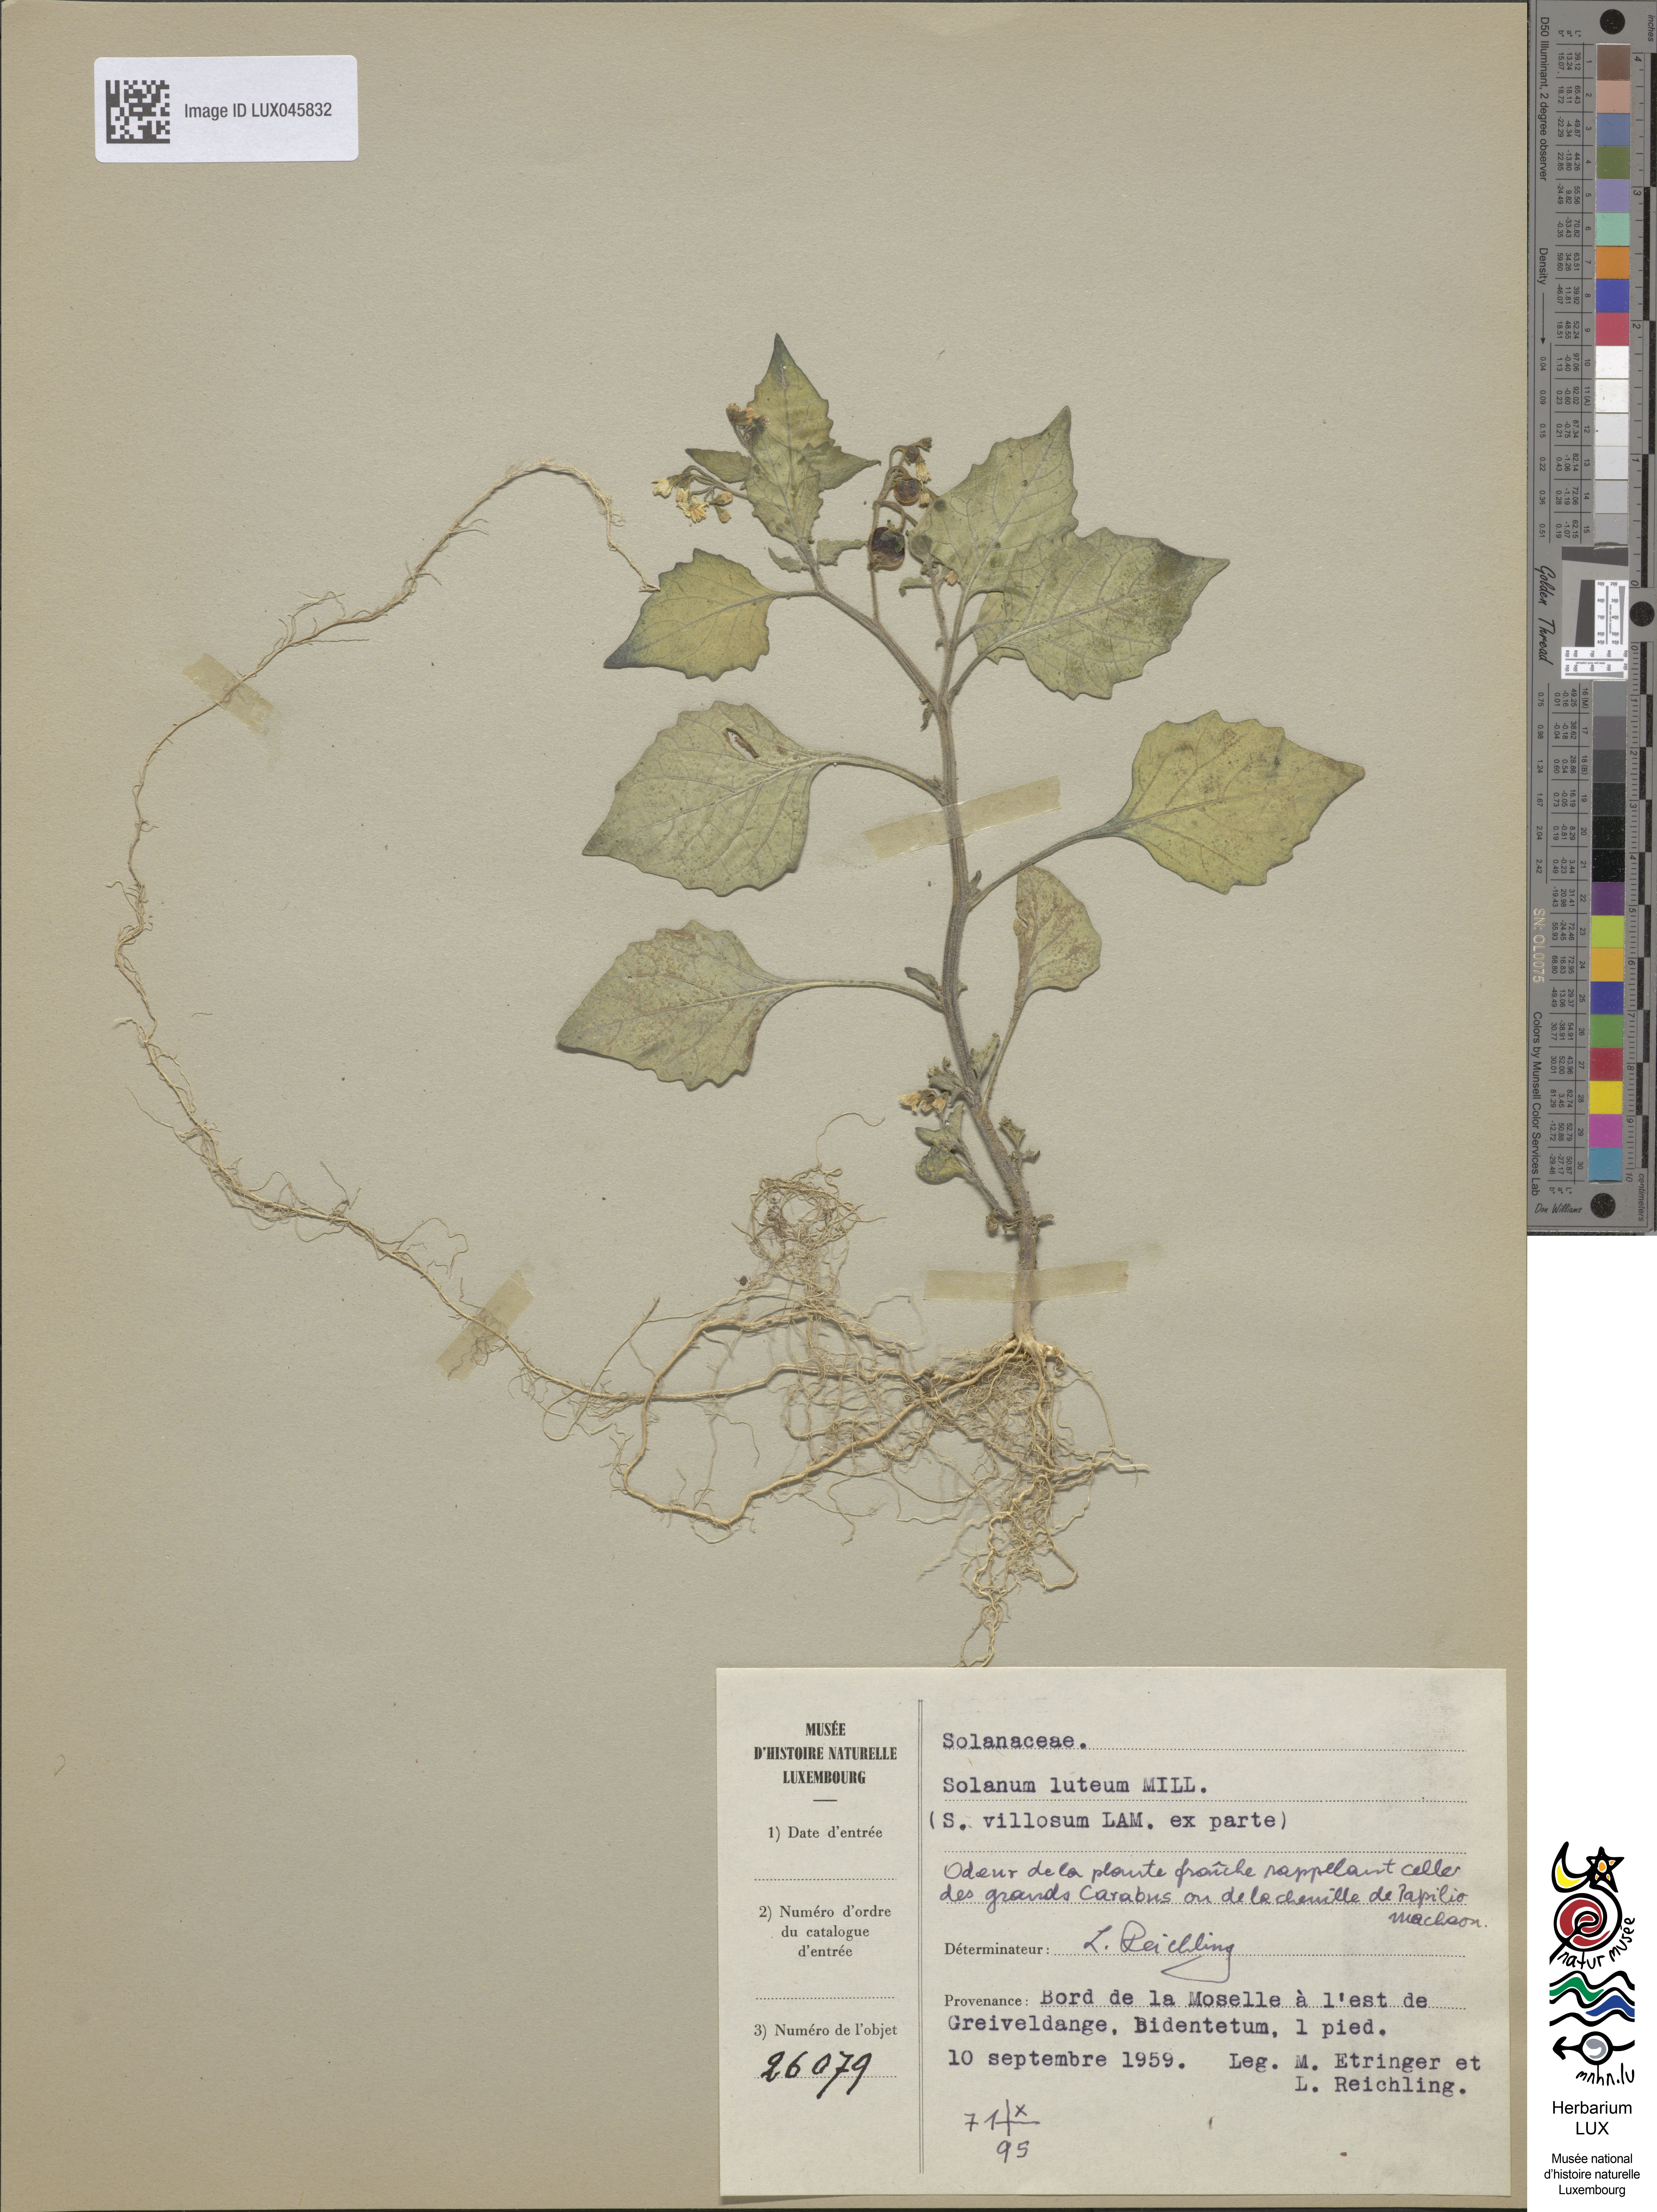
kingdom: Plantae
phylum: Tracheophyta
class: Magnoliopsida
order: Solanales
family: Solanaceae
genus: Solanum
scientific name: Solanum villosum
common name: Red nightshade
